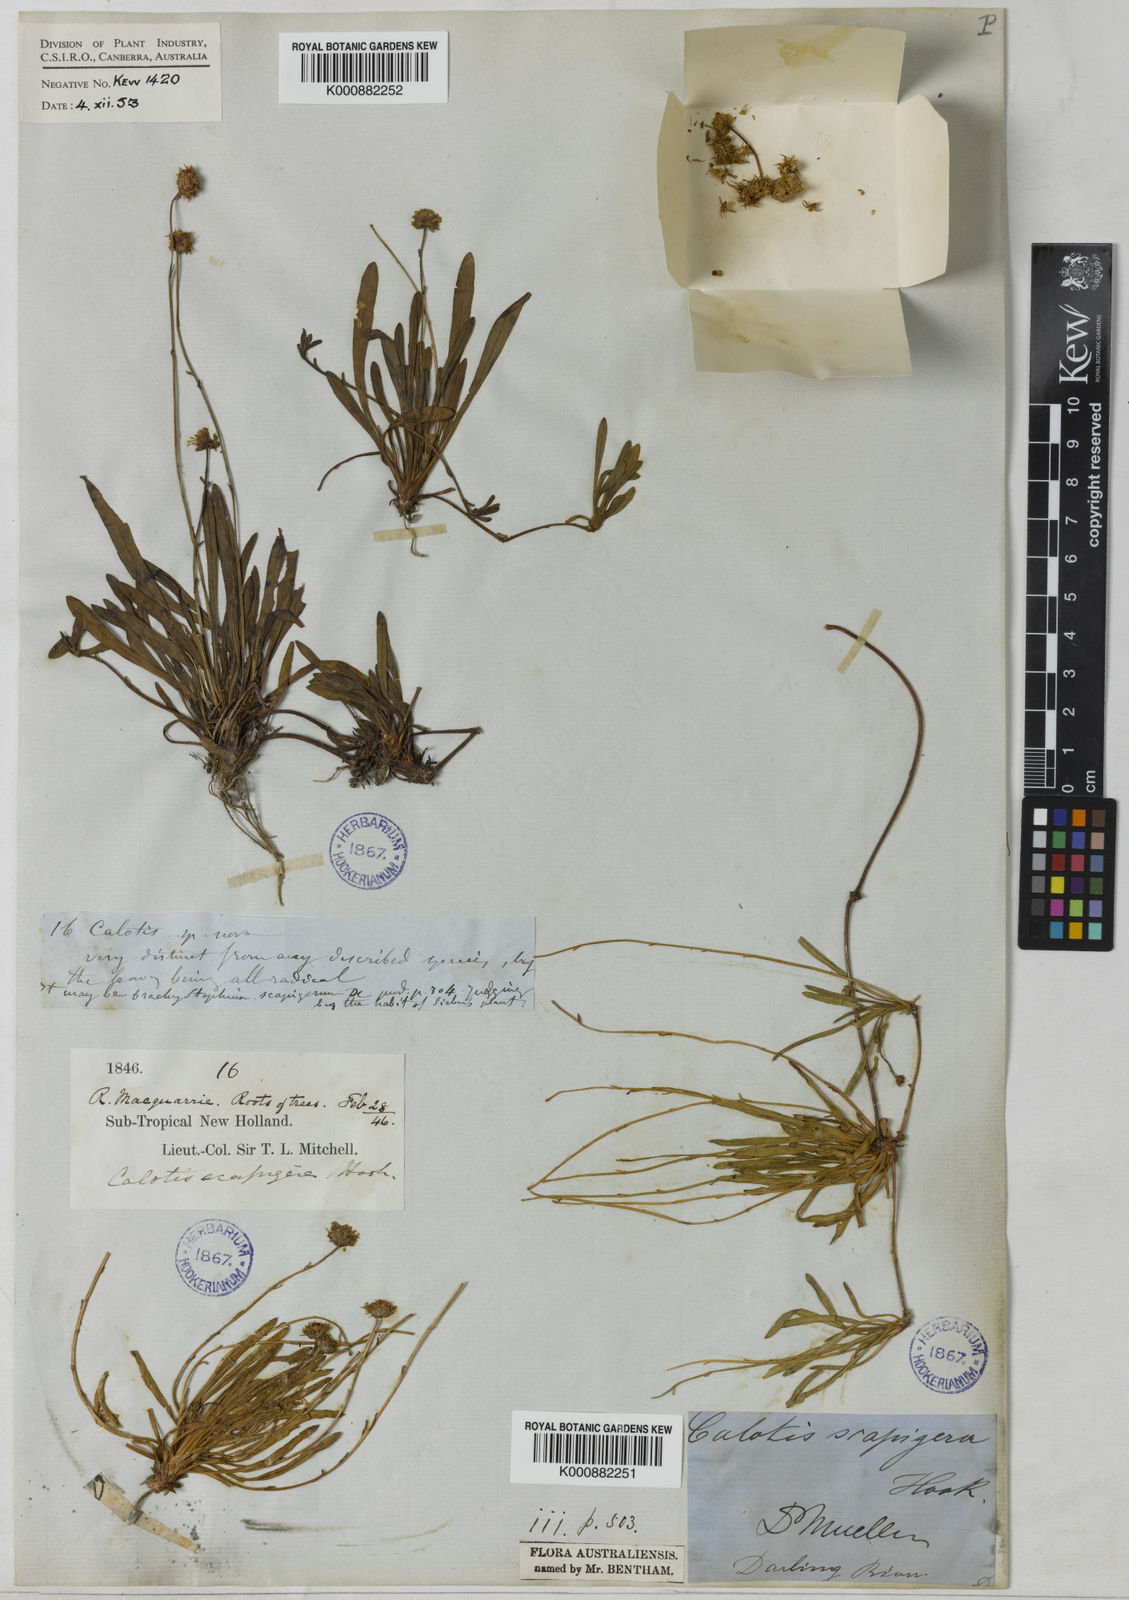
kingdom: Plantae
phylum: Tracheophyta
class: Magnoliopsida
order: Asterales
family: Asteraceae
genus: Calotis
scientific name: Calotis scapigera
